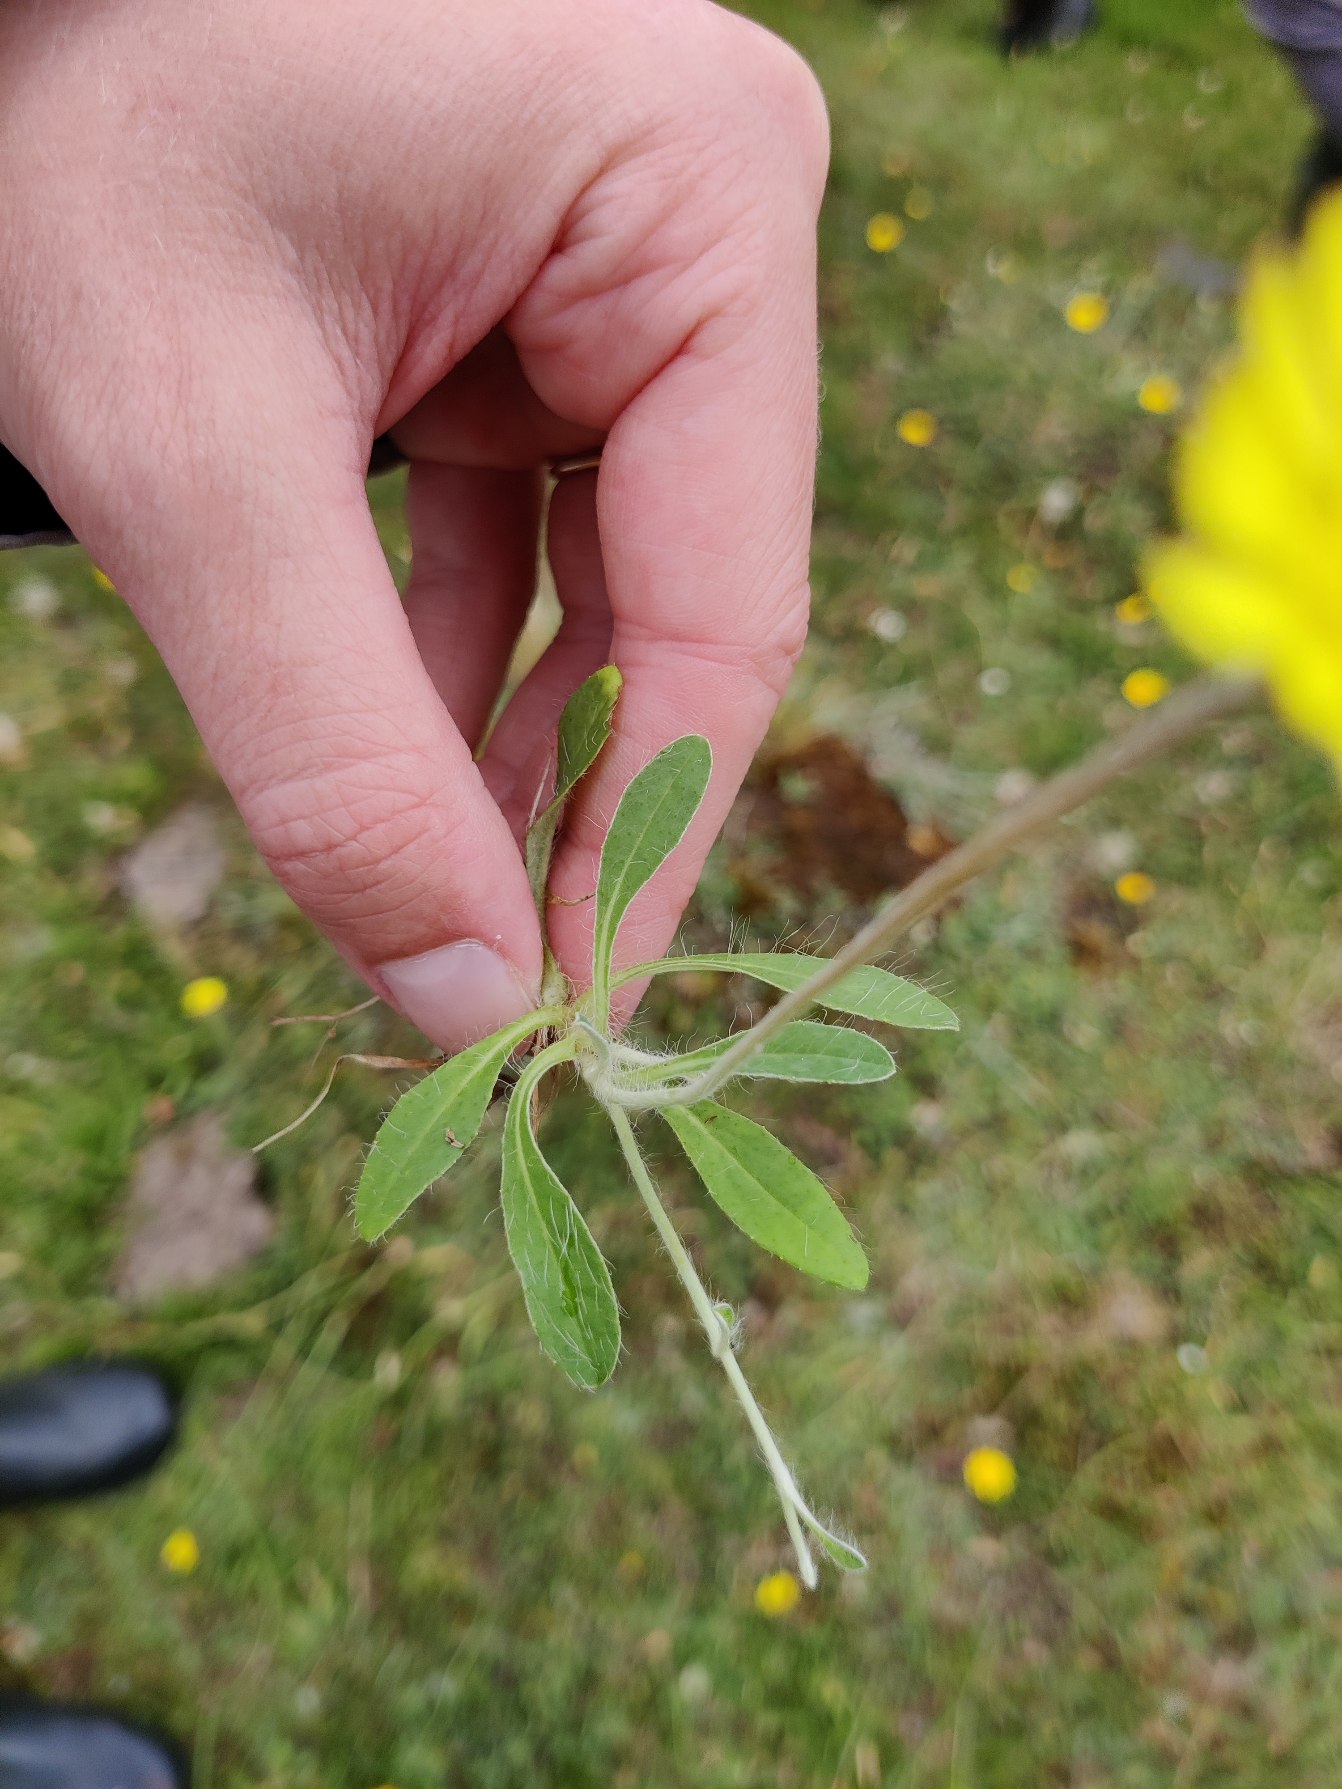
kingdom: Plantae
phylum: Tracheophyta
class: Magnoliopsida
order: Asterales
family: Asteraceae
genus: Pilosella
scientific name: Pilosella officinarum
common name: Håret høgeurt
